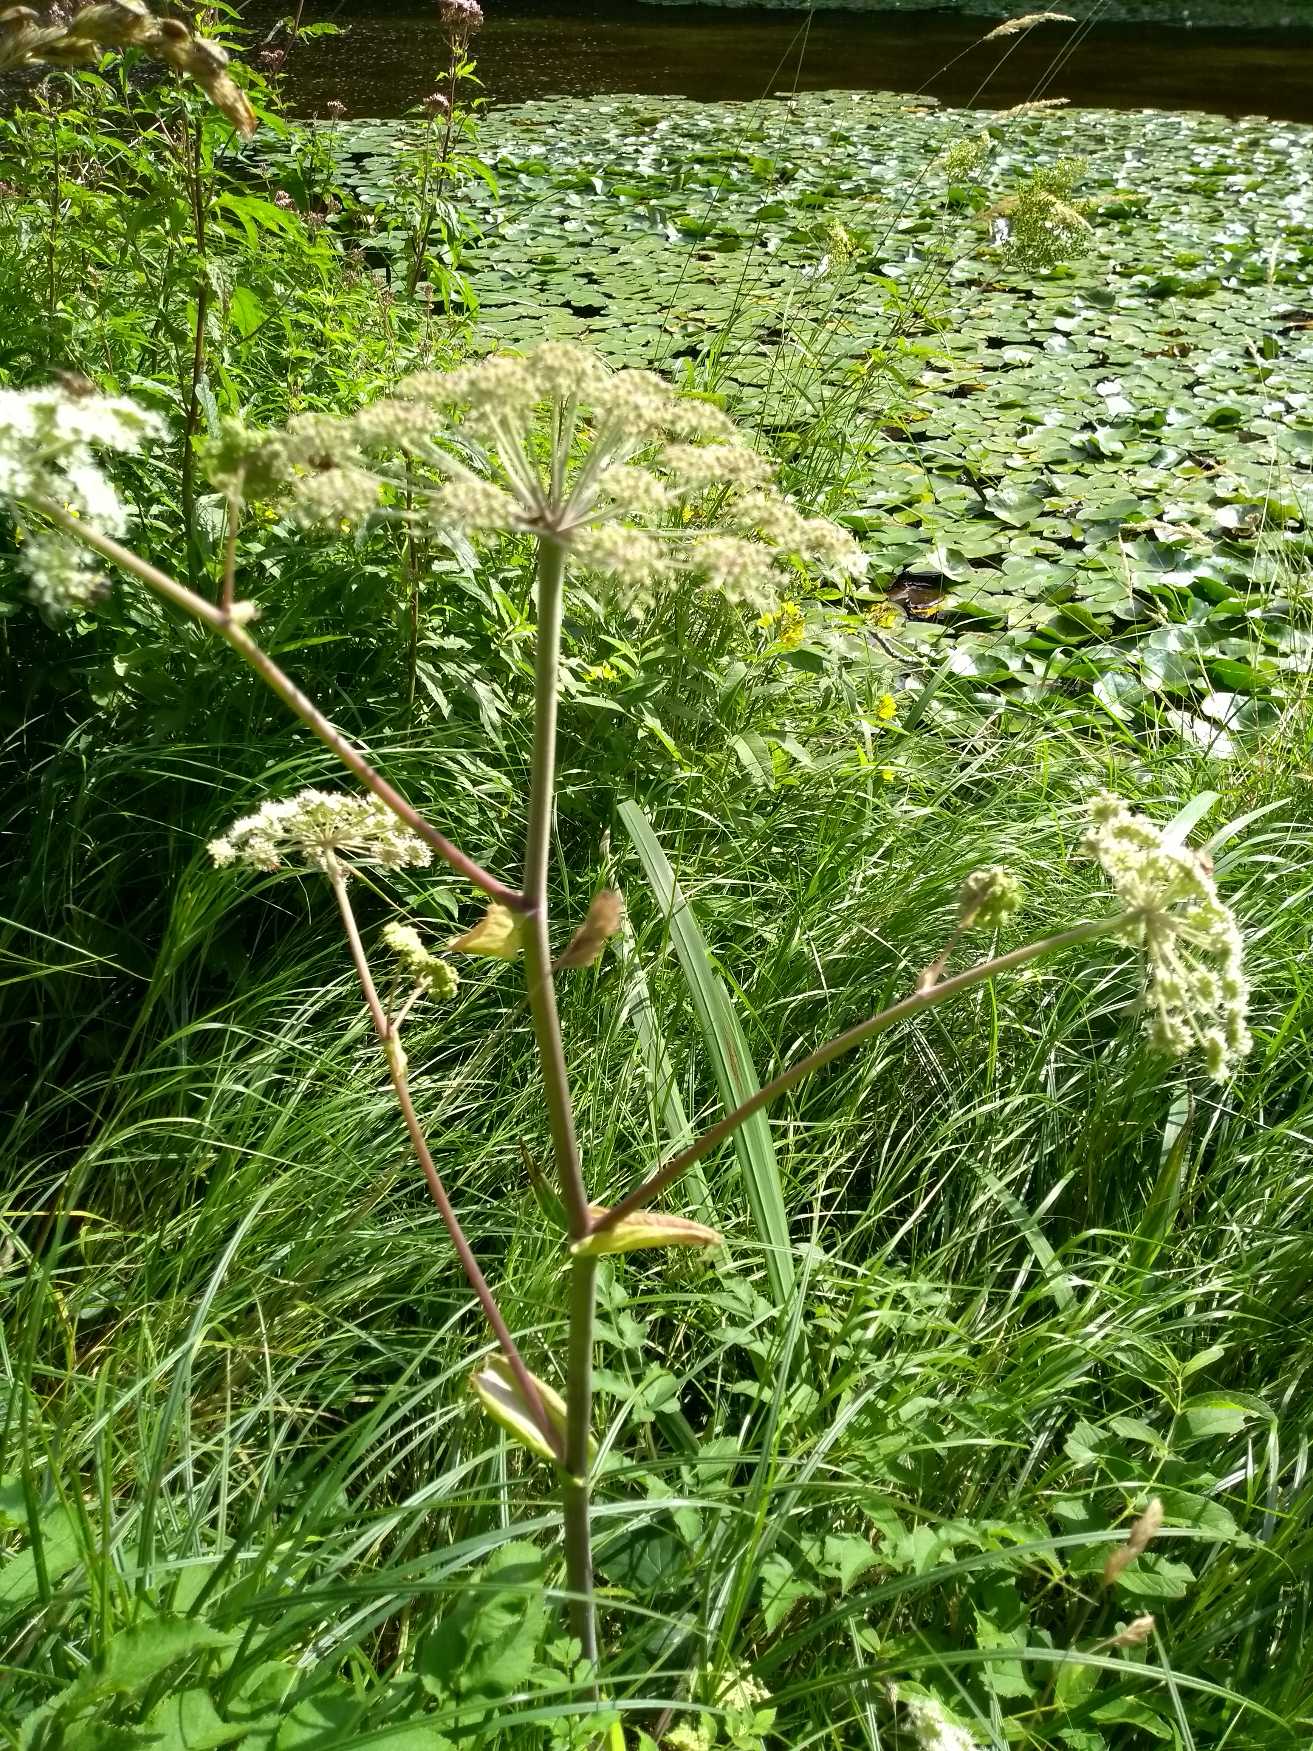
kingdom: Plantae
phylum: Tracheophyta
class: Magnoliopsida
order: Apiales
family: Apiaceae
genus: Angelica
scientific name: Angelica sylvestris
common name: Angelik
